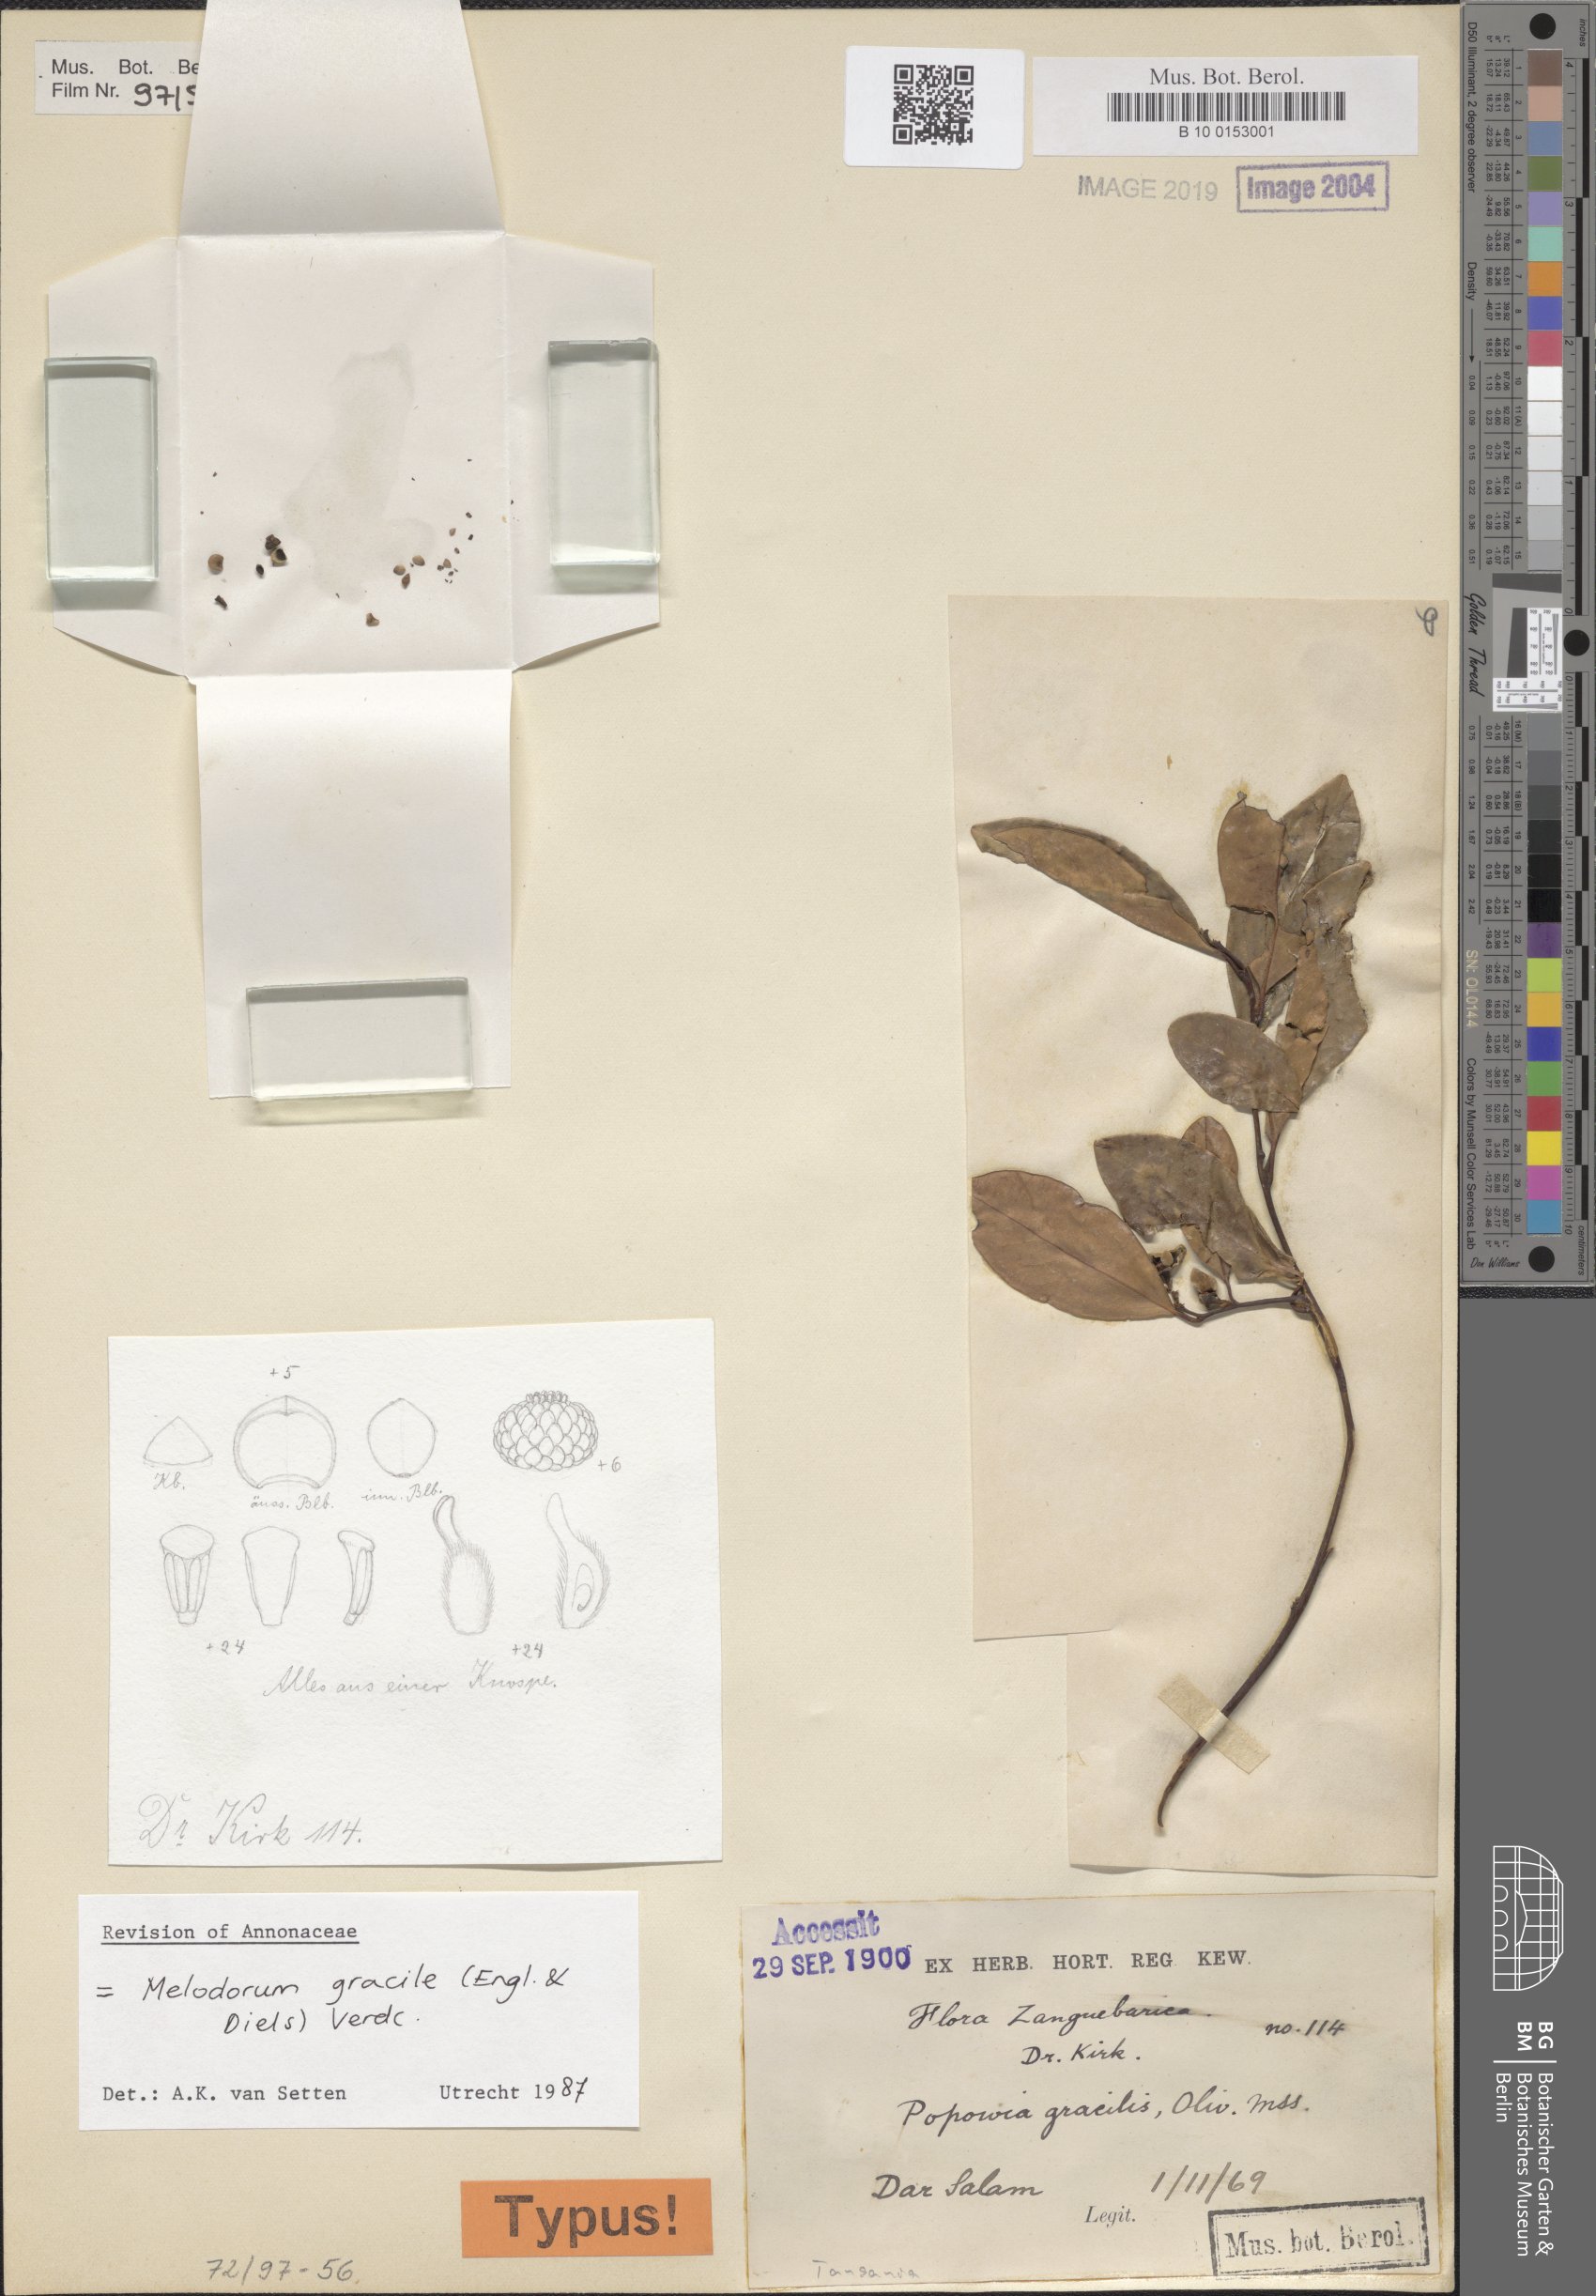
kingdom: Plantae
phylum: Tracheophyta
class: Magnoliopsida
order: Magnoliales
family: Annonaceae
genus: Sphaerocoryne
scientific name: Sphaerocoryne gracilis
